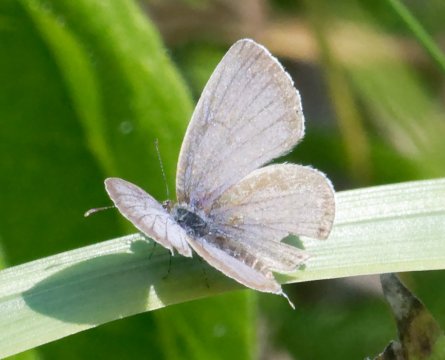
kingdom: Animalia
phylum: Arthropoda
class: Insecta
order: Lepidoptera
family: Lycaenidae
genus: Elkalyce
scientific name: Elkalyce comyntas
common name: Eastern Tailed-Blue
